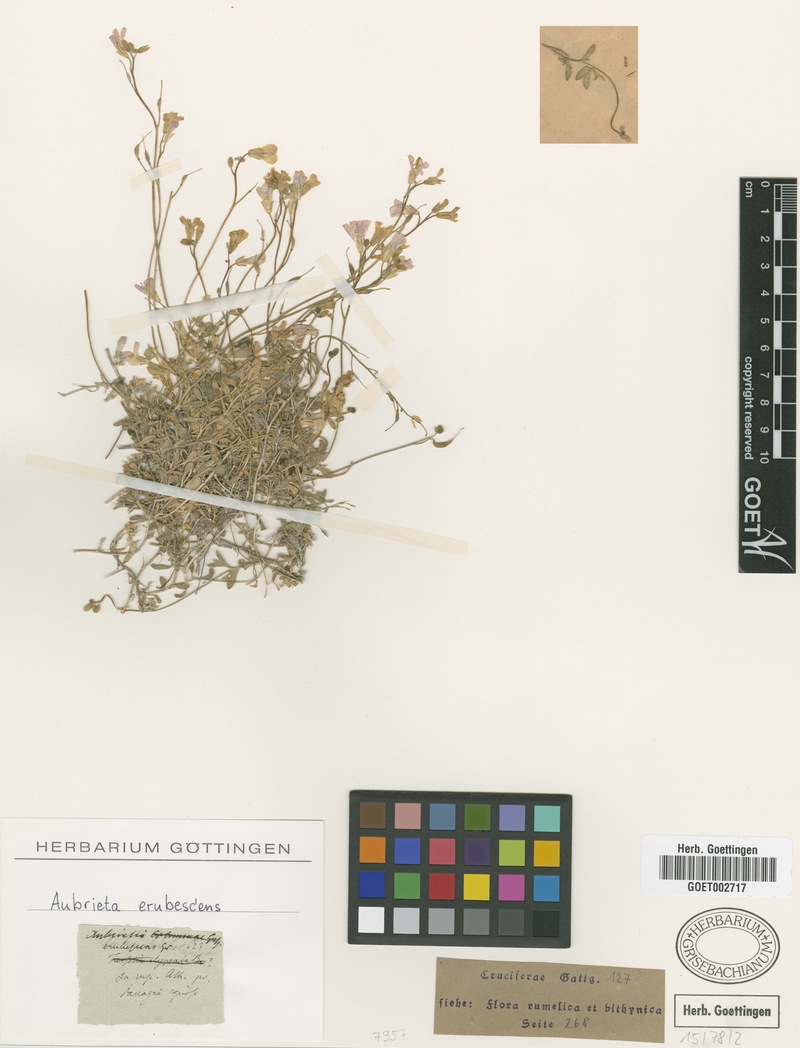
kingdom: Plantae
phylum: Tracheophyta
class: Magnoliopsida
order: Brassicales
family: Brassicaceae
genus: Aubrieta
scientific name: Aubrieta erubescens
